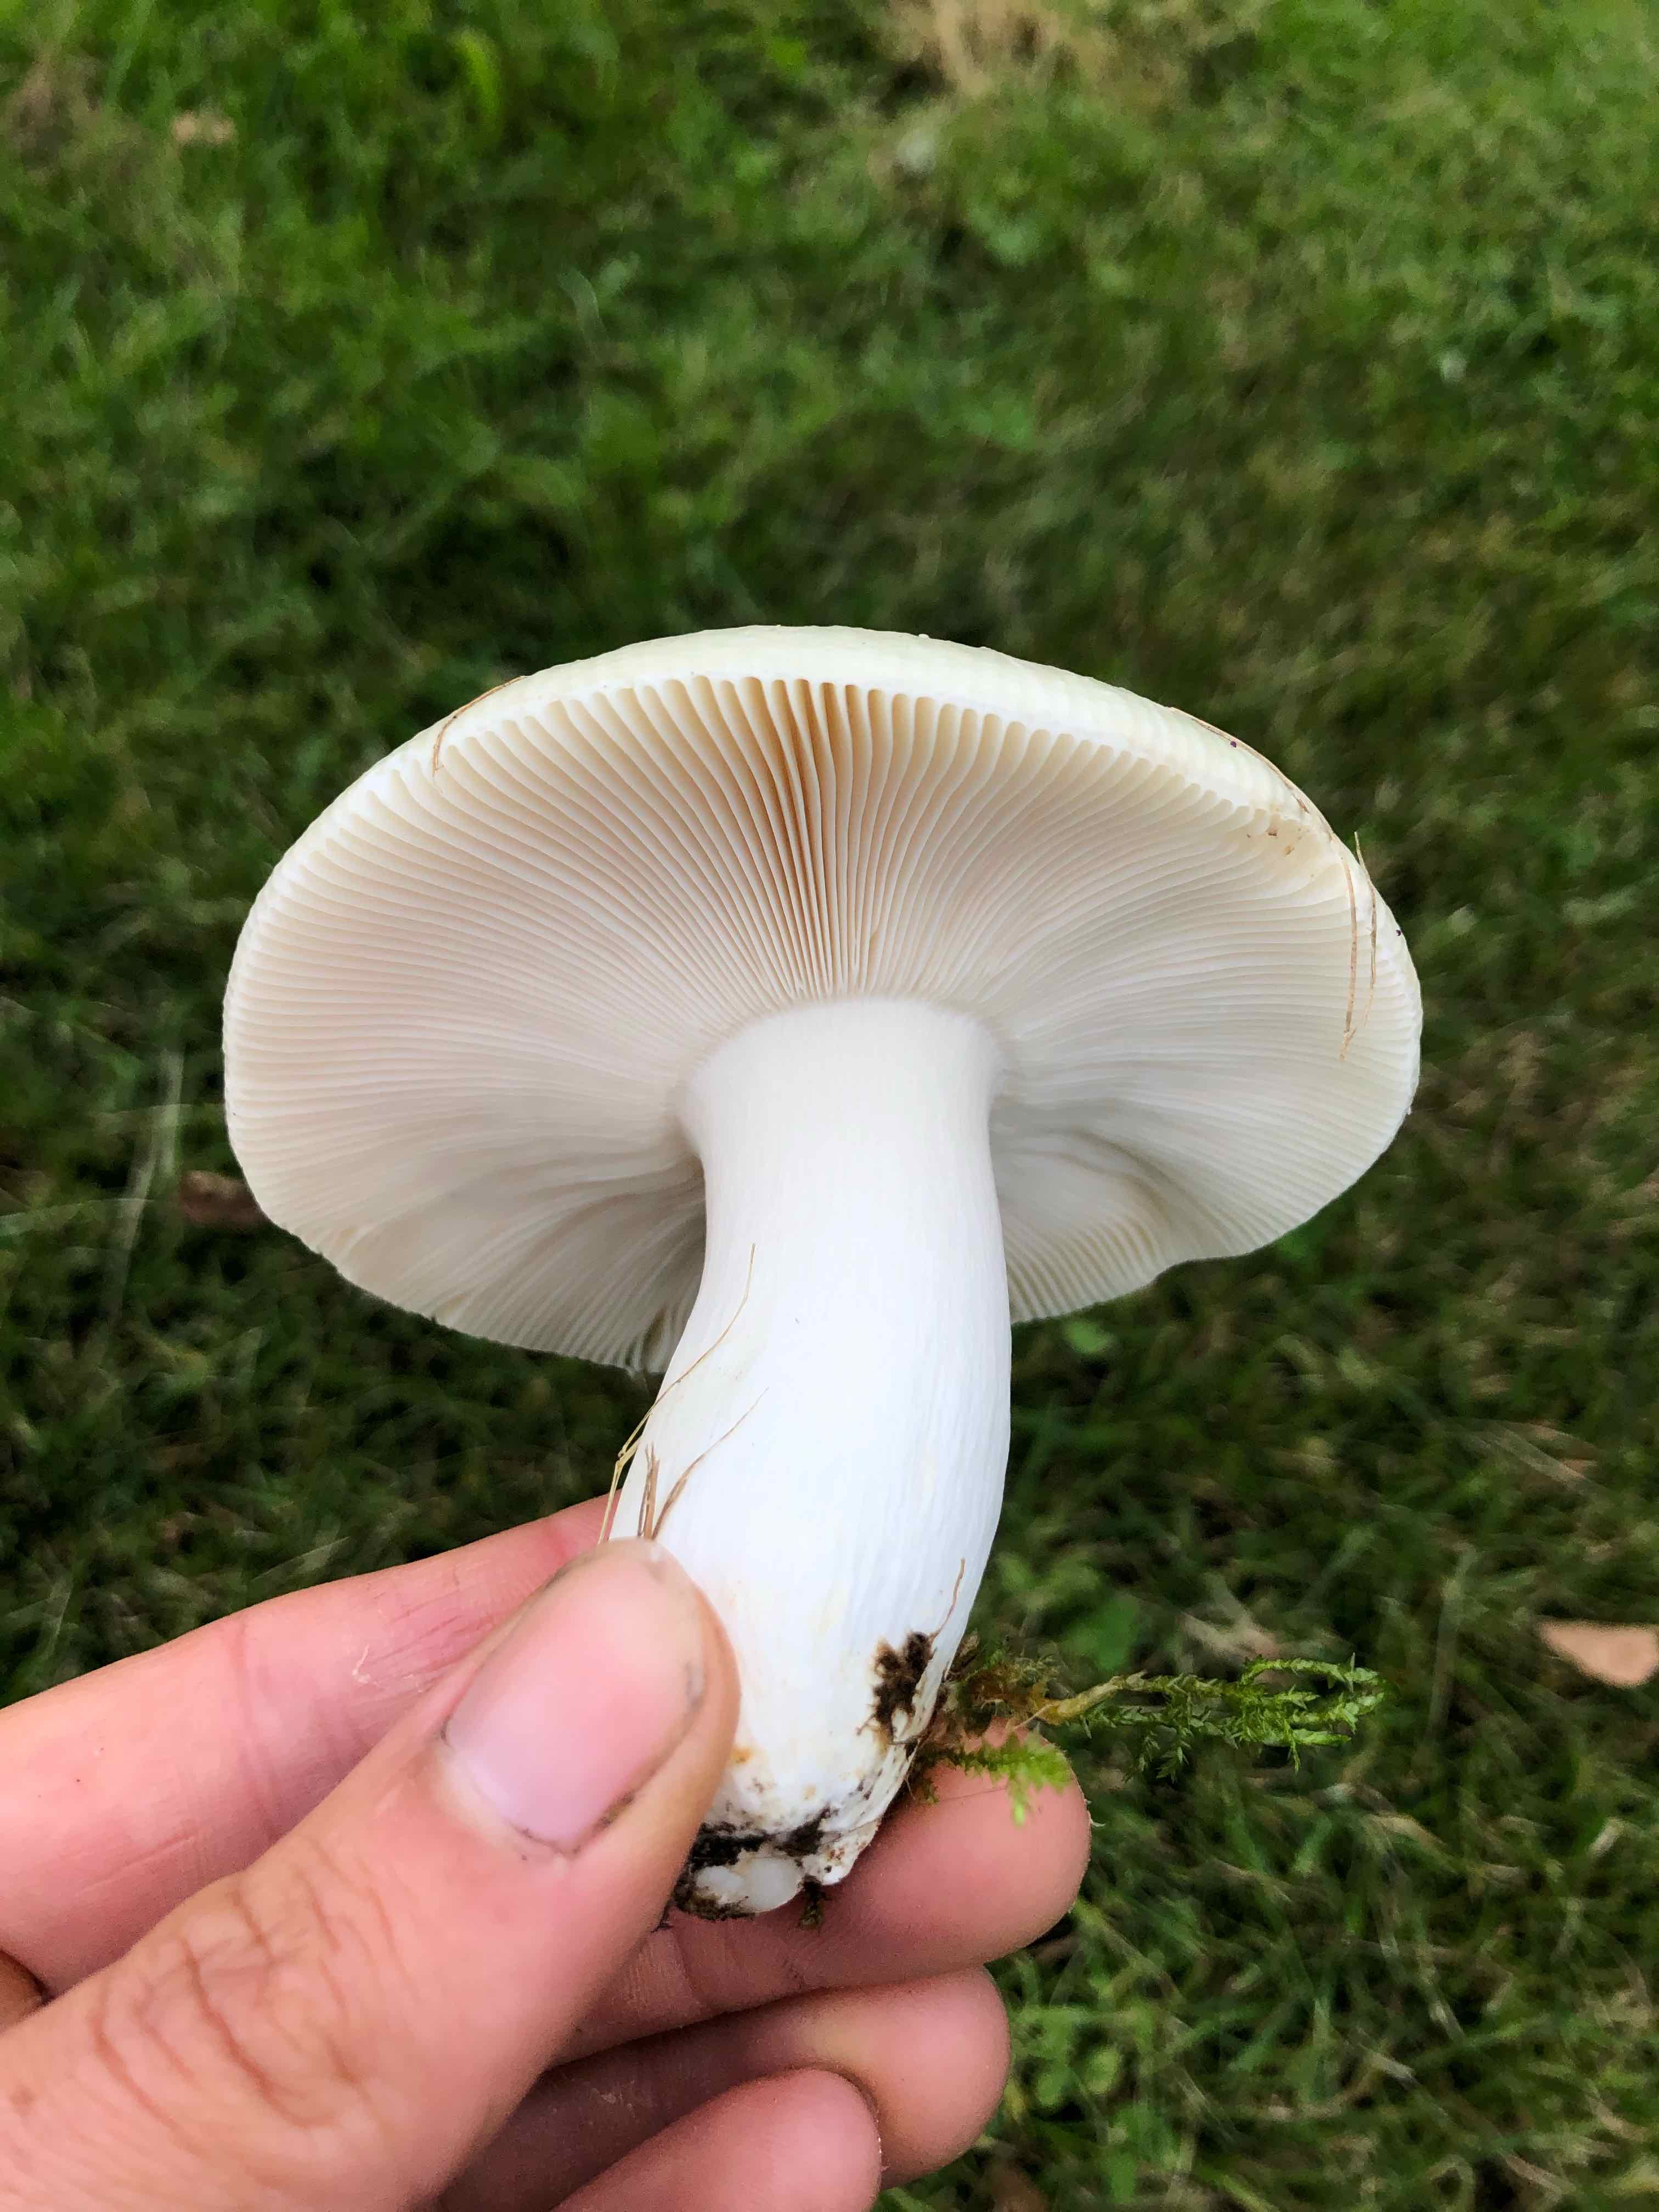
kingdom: Fungi
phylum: Basidiomycota
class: Agaricomycetes
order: Russulales
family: Russulaceae
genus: Russula
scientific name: Russula aeruginea
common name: græsgrøn skørhat
